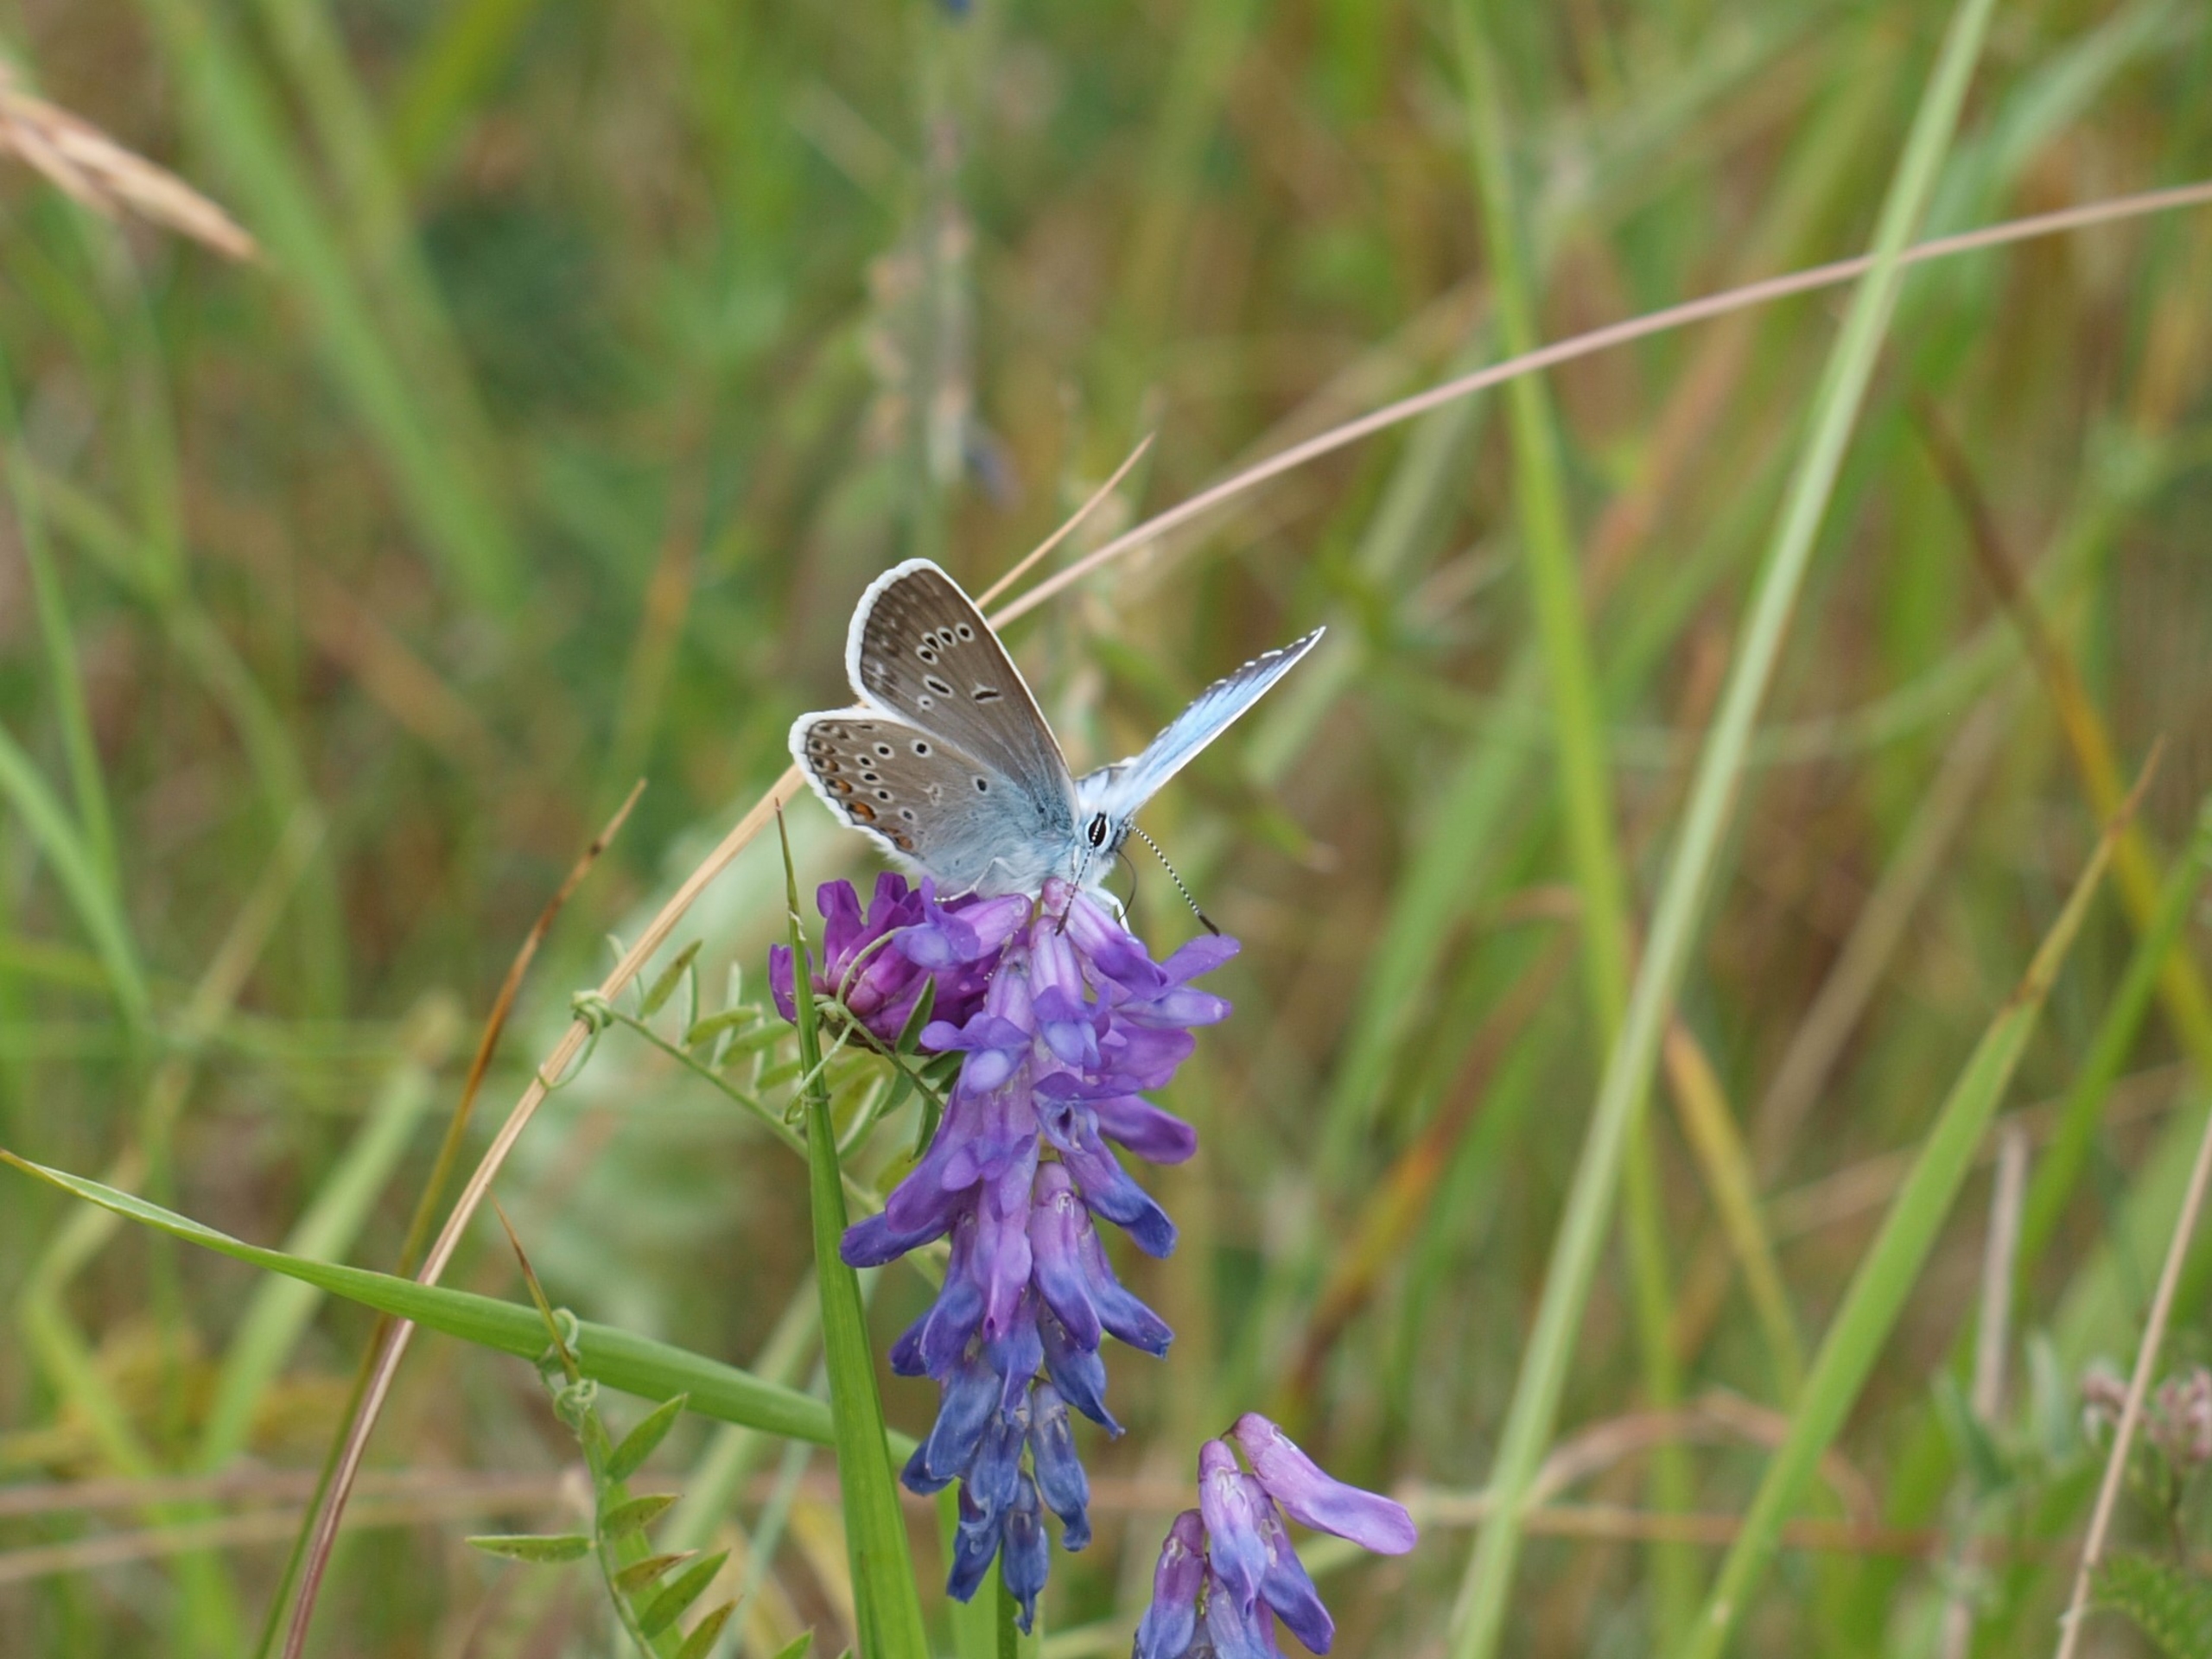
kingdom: Animalia
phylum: Arthropoda
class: Insecta
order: Lepidoptera
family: Lycaenidae
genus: Plebejus
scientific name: Plebejus amanda
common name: Isblåfugl
